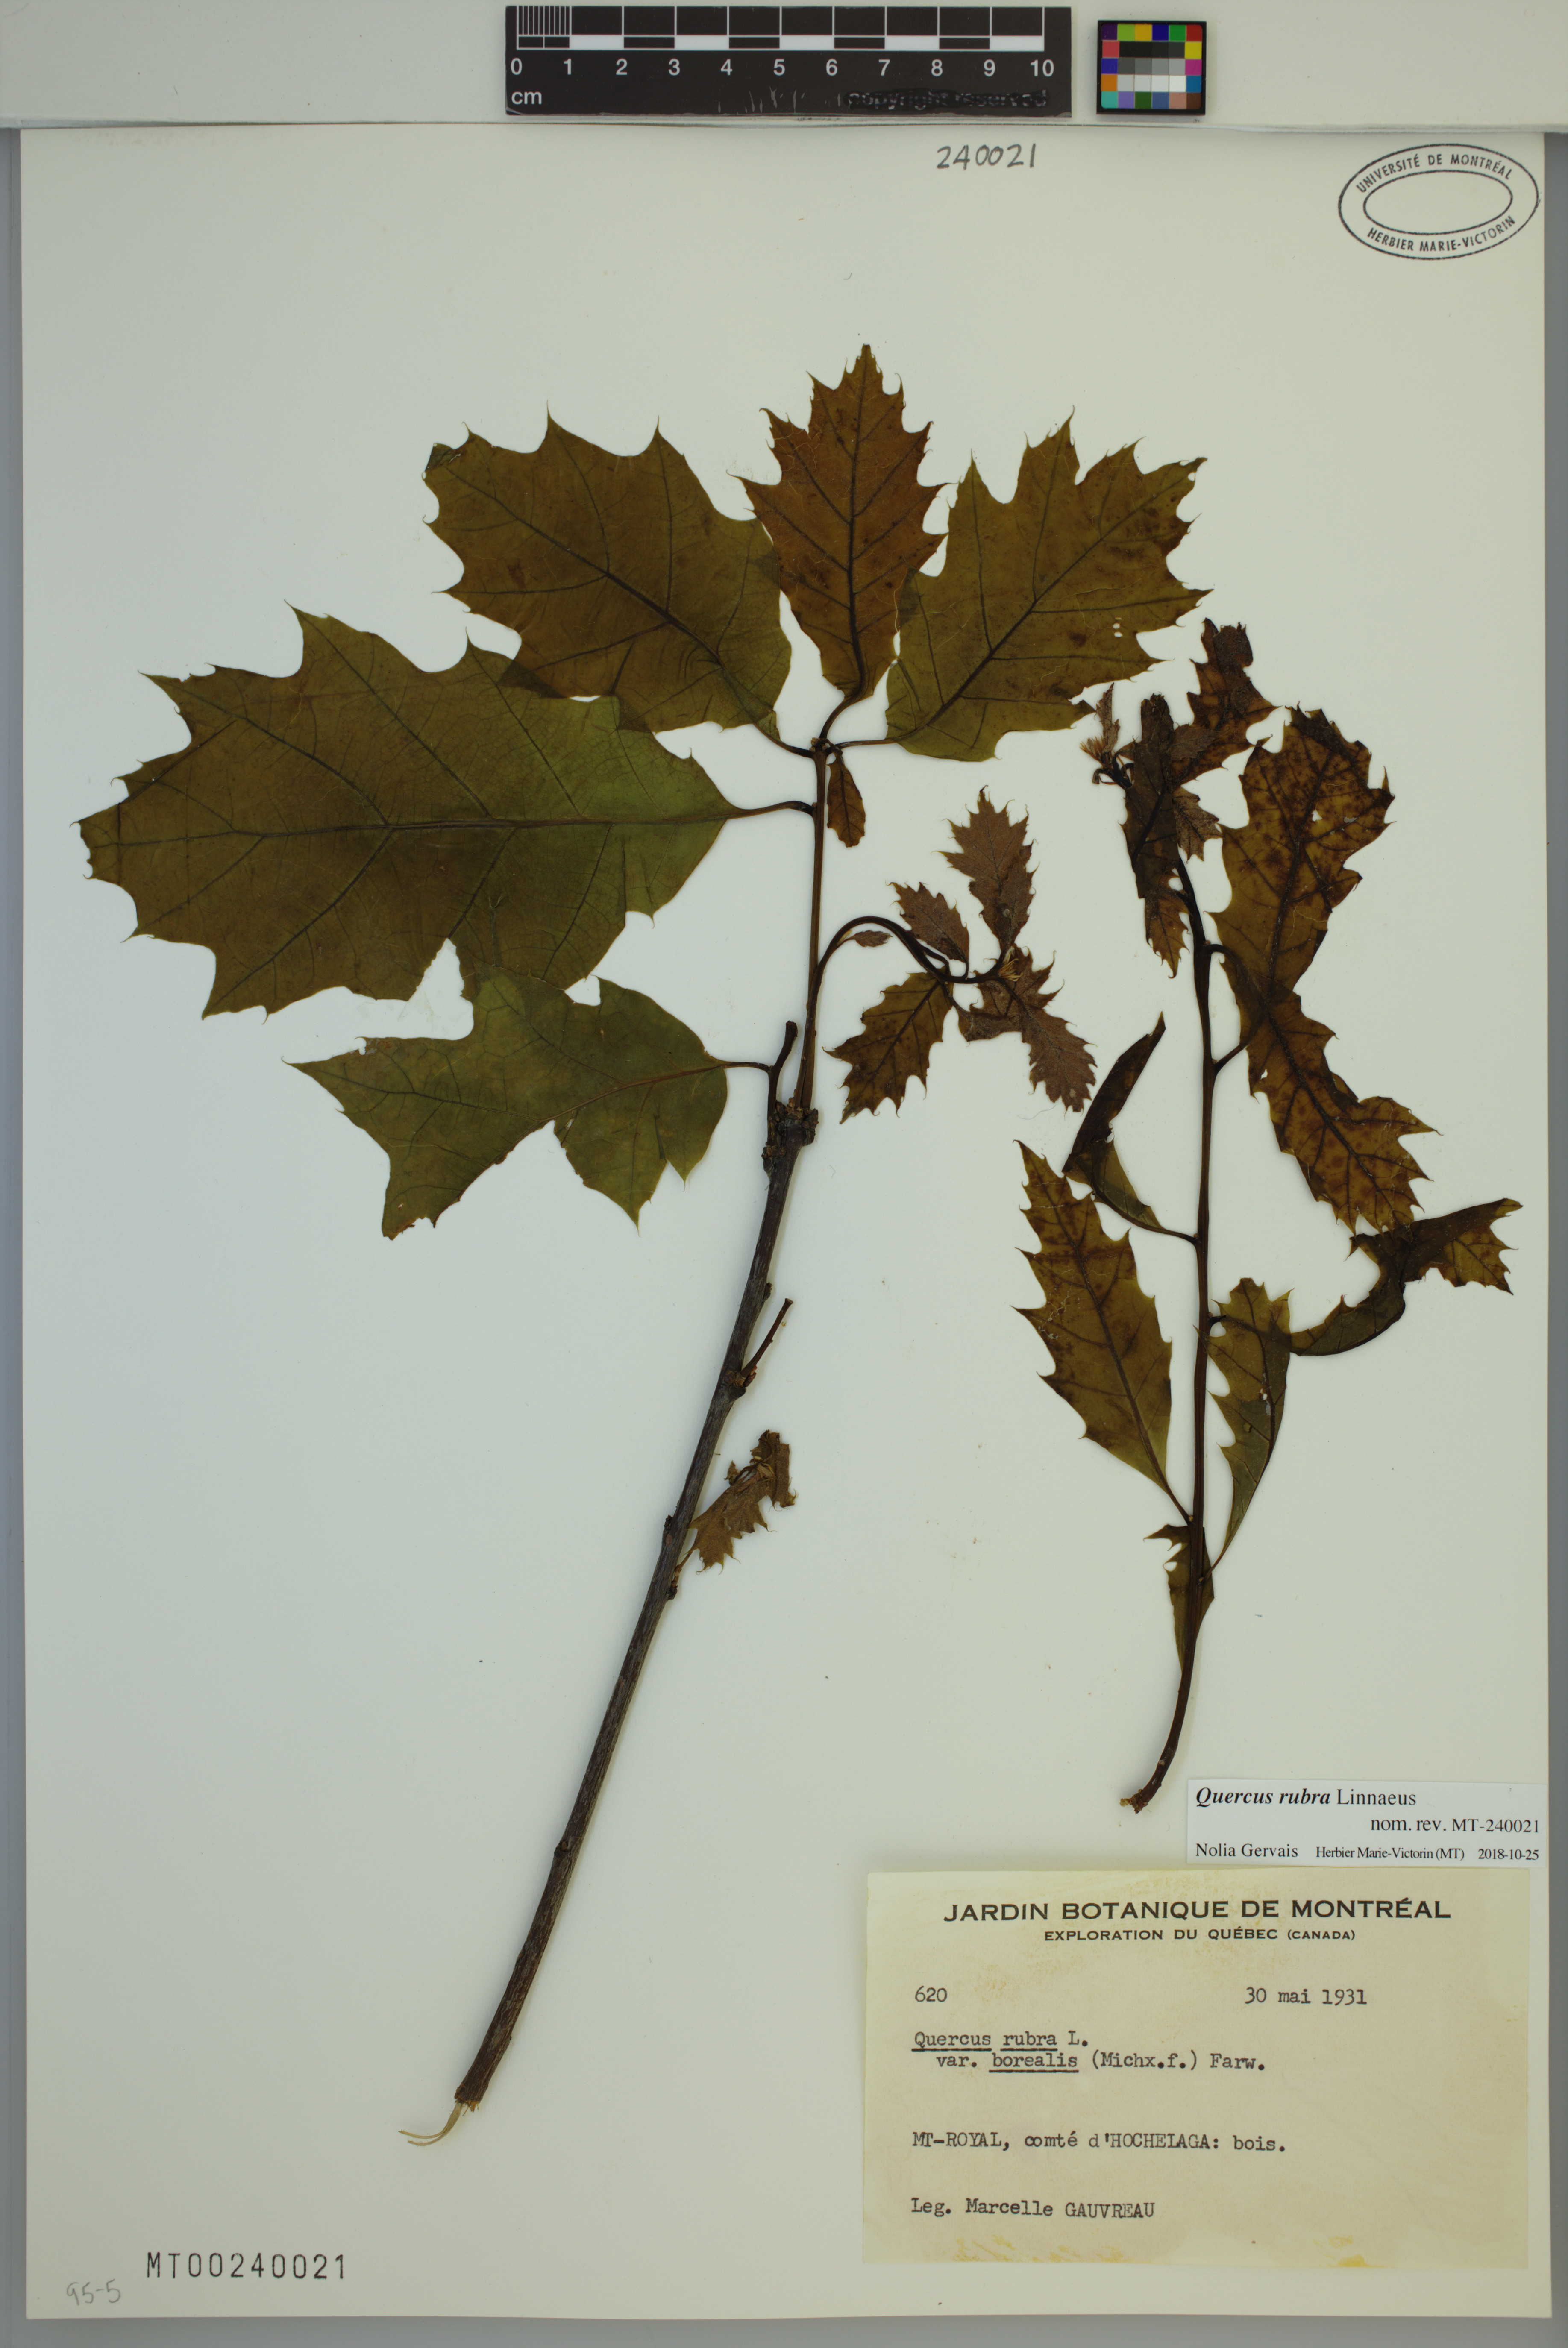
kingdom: Plantae
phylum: Tracheophyta
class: Magnoliopsida
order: Fagales
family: Fagaceae
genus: Quercus
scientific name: Quercus rubra
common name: Red oak
